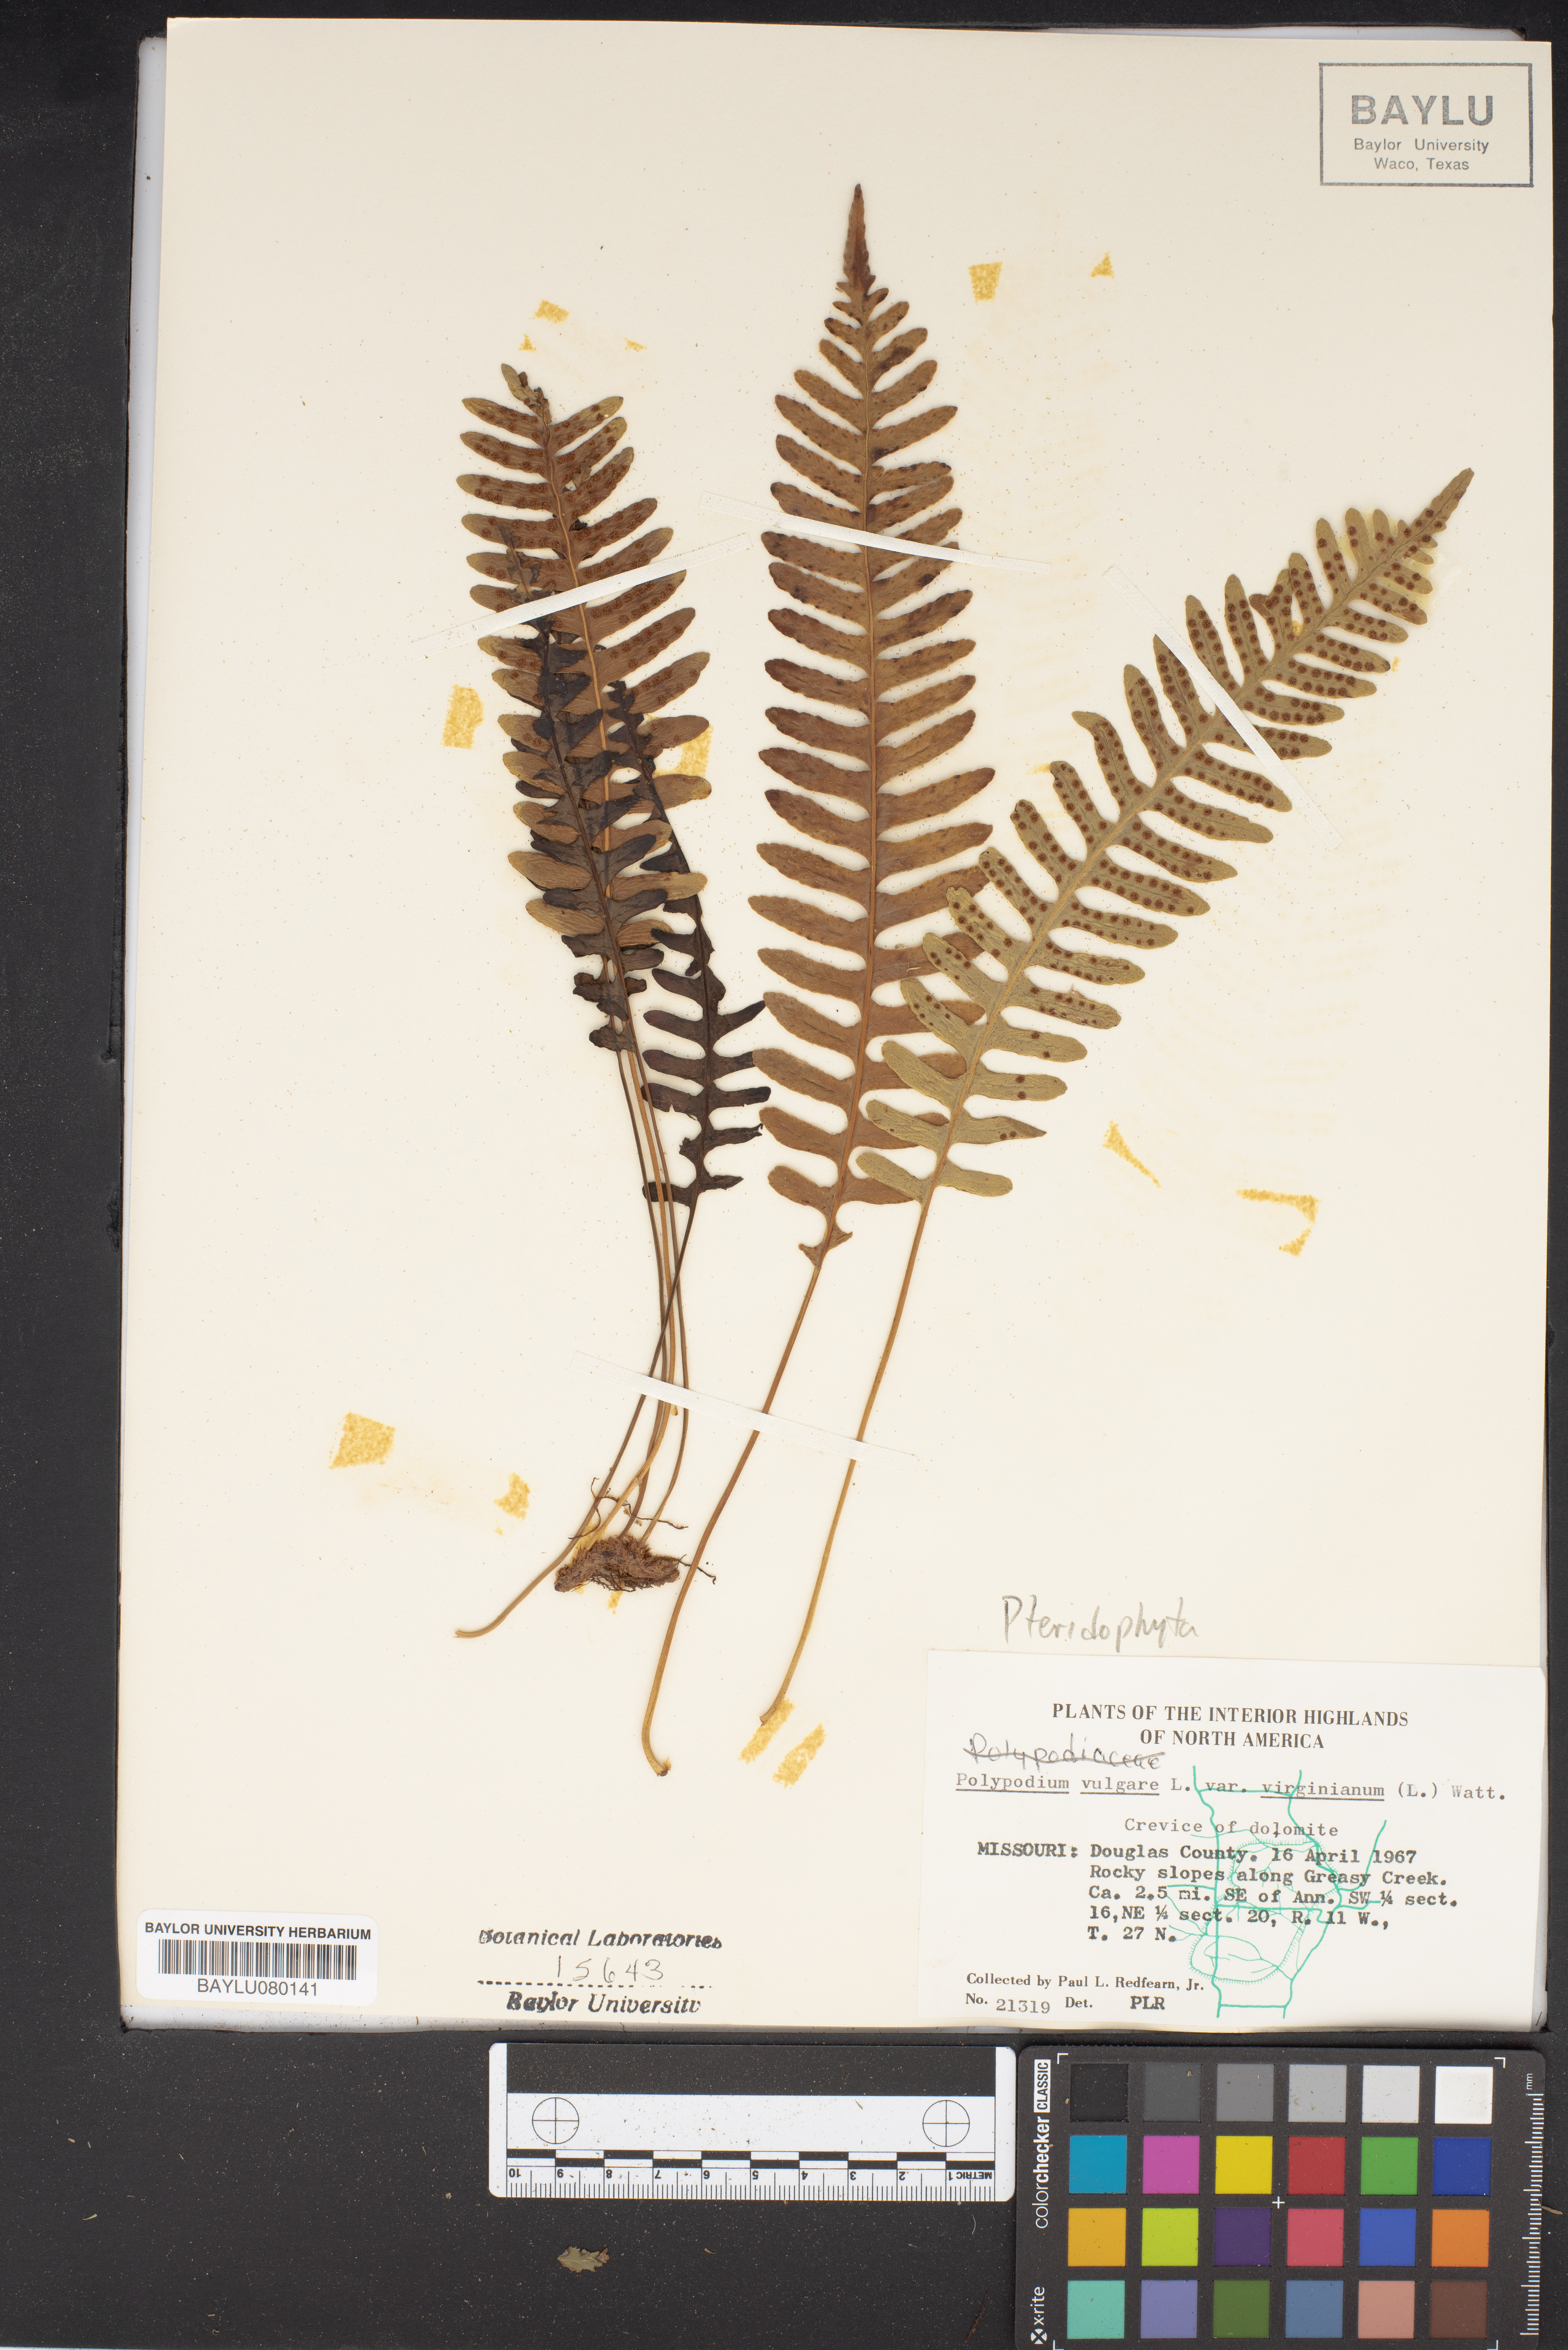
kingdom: Plantae
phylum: Tracheophyta
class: Polypodiopsida
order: Polypodiales
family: Polypodiaceae
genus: Polypodium
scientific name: Polypodium virginianum
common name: American wall fern
